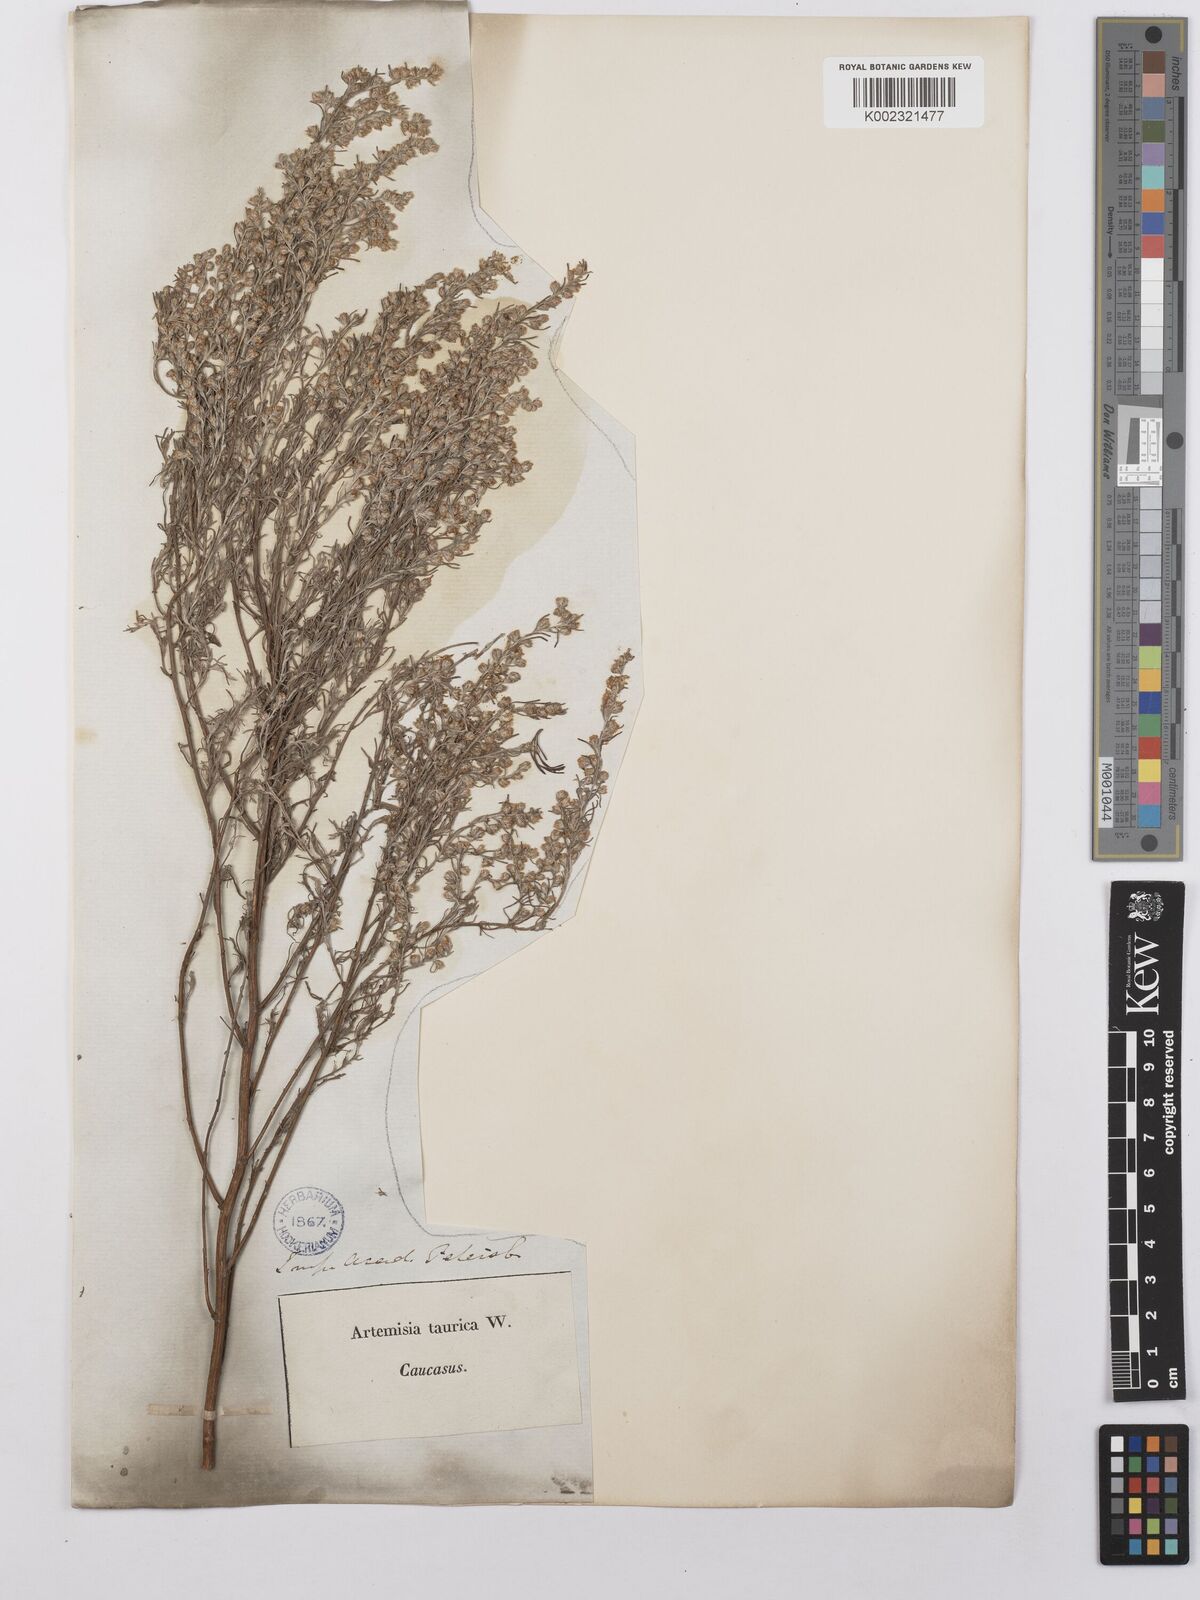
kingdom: Plantae
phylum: Tracheophyta
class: Magnoliopsida
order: Asterales
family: Asteraceae
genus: Artemisia
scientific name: Artemisia fragrans
